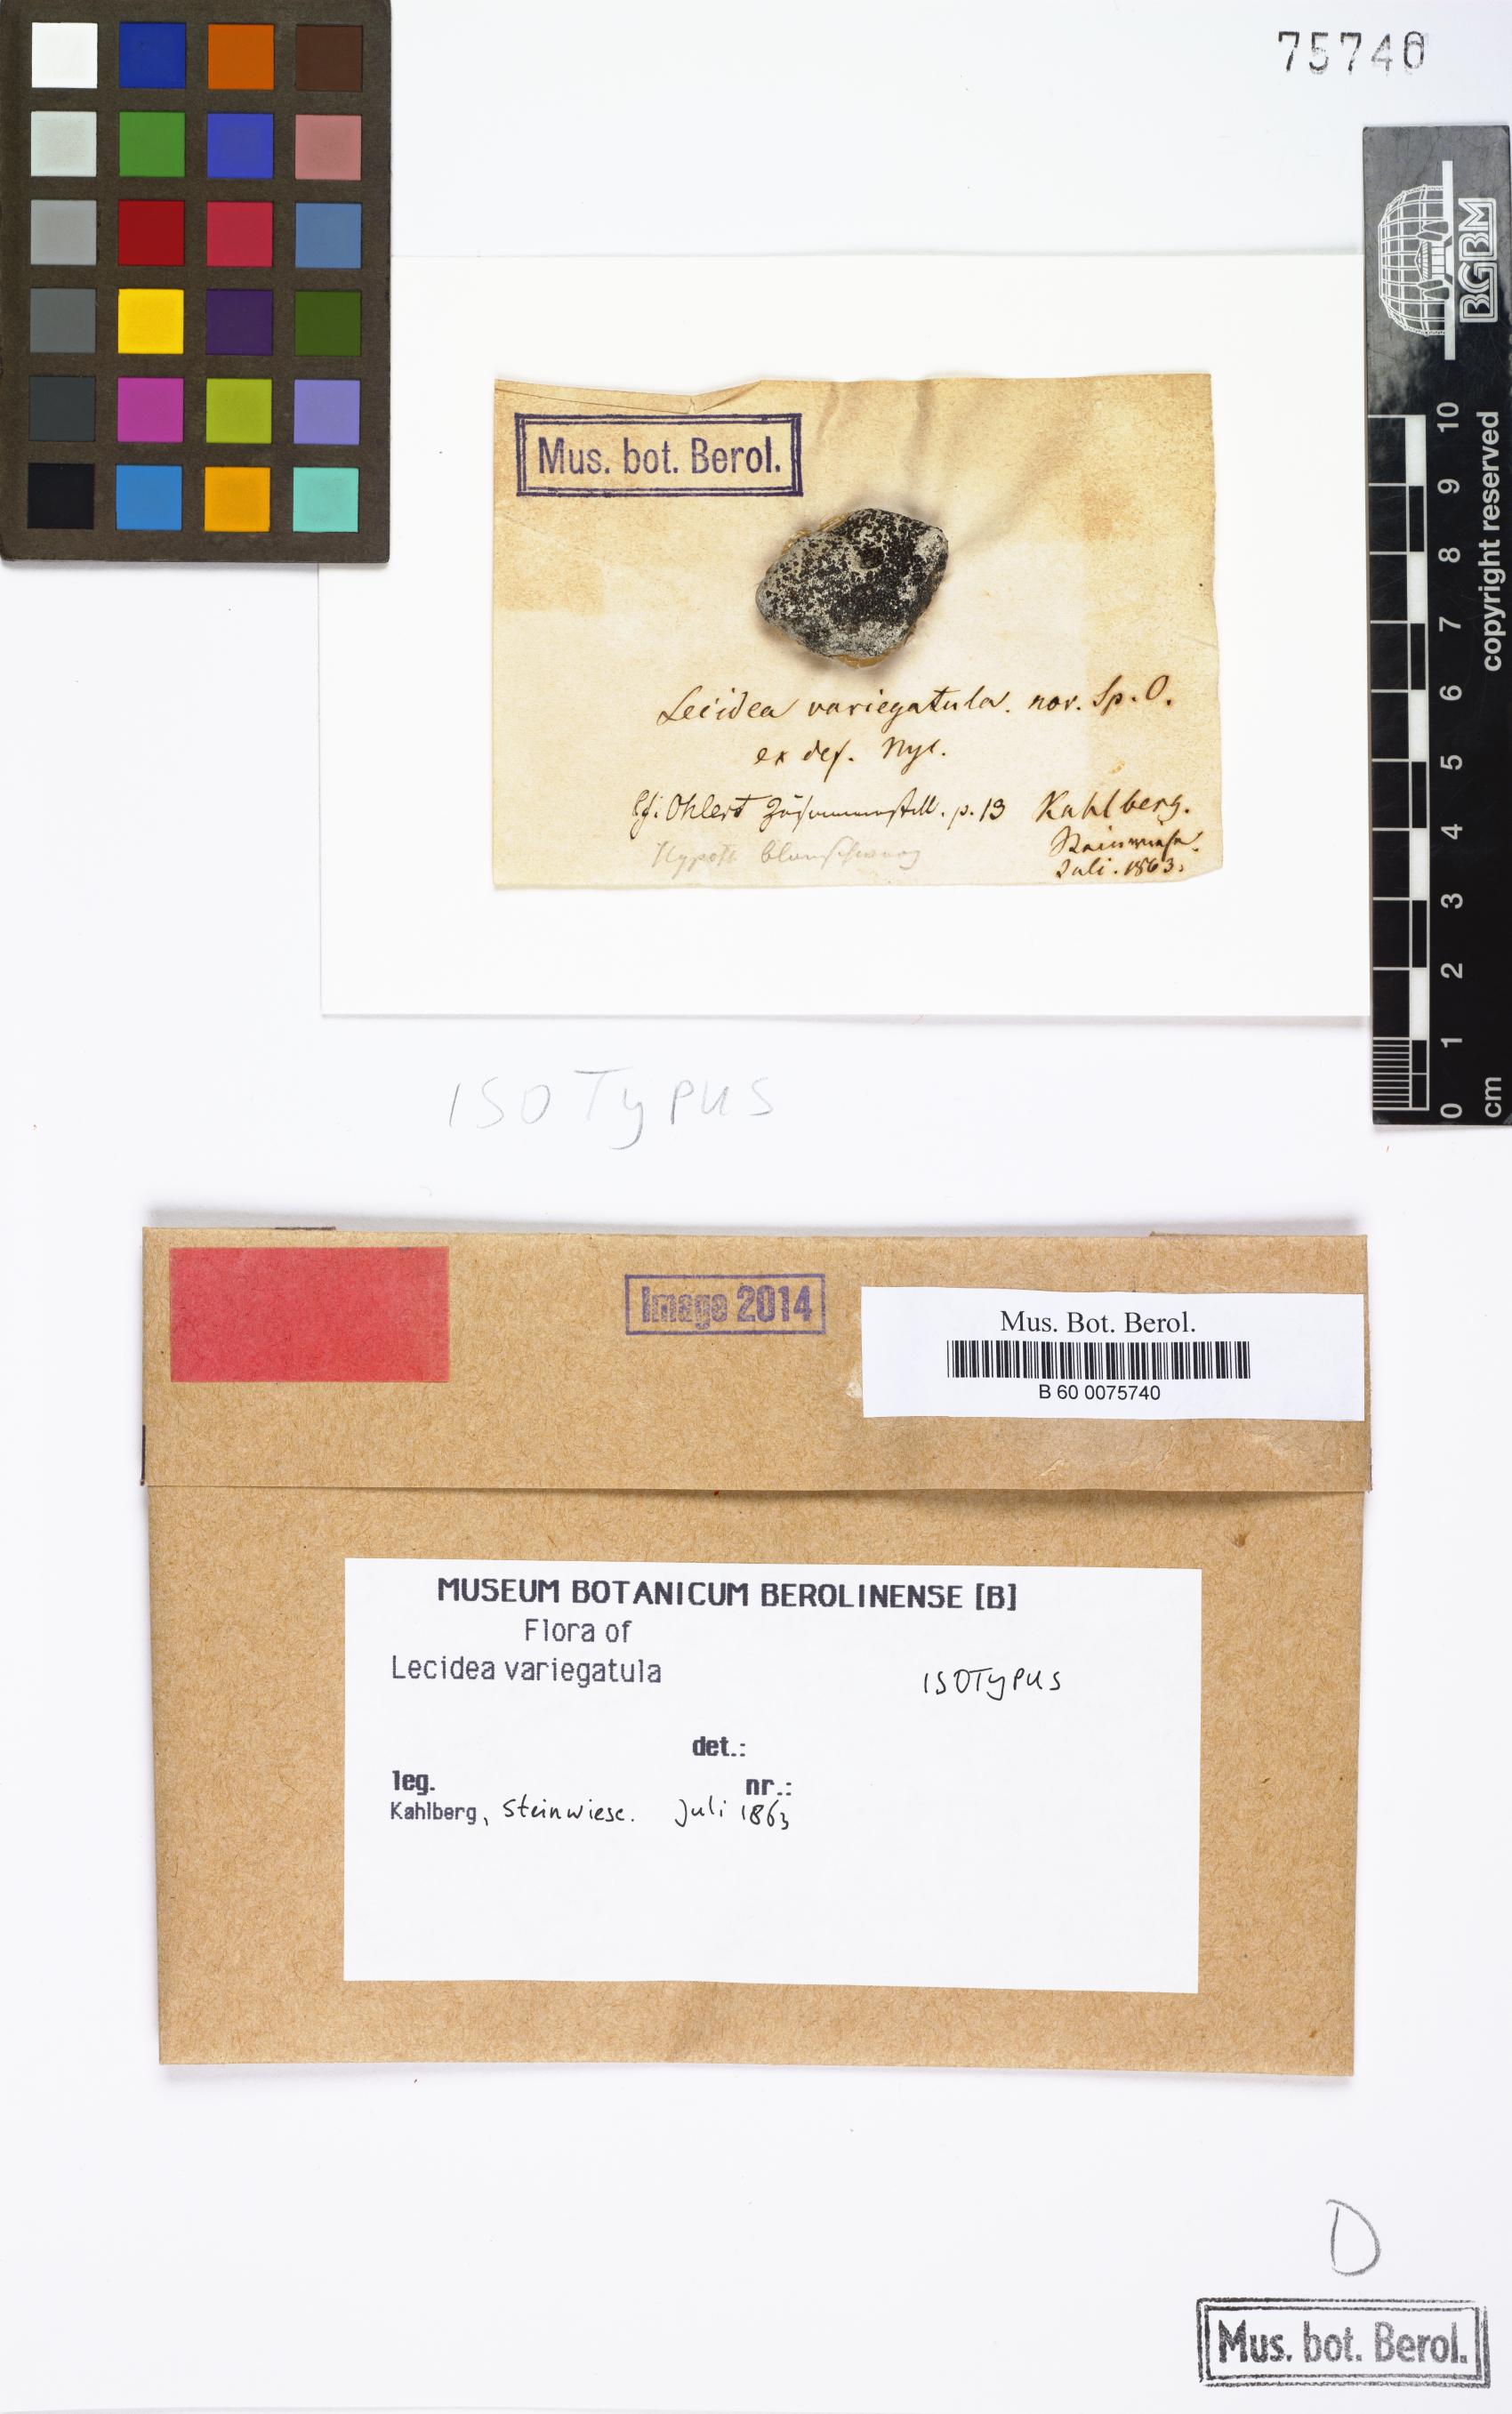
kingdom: Fungi
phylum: Ascomycota
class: Lecanoromycetes
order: Lecideales
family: Lecideaceae
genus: Lecidea
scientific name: Lecidea variegatula
